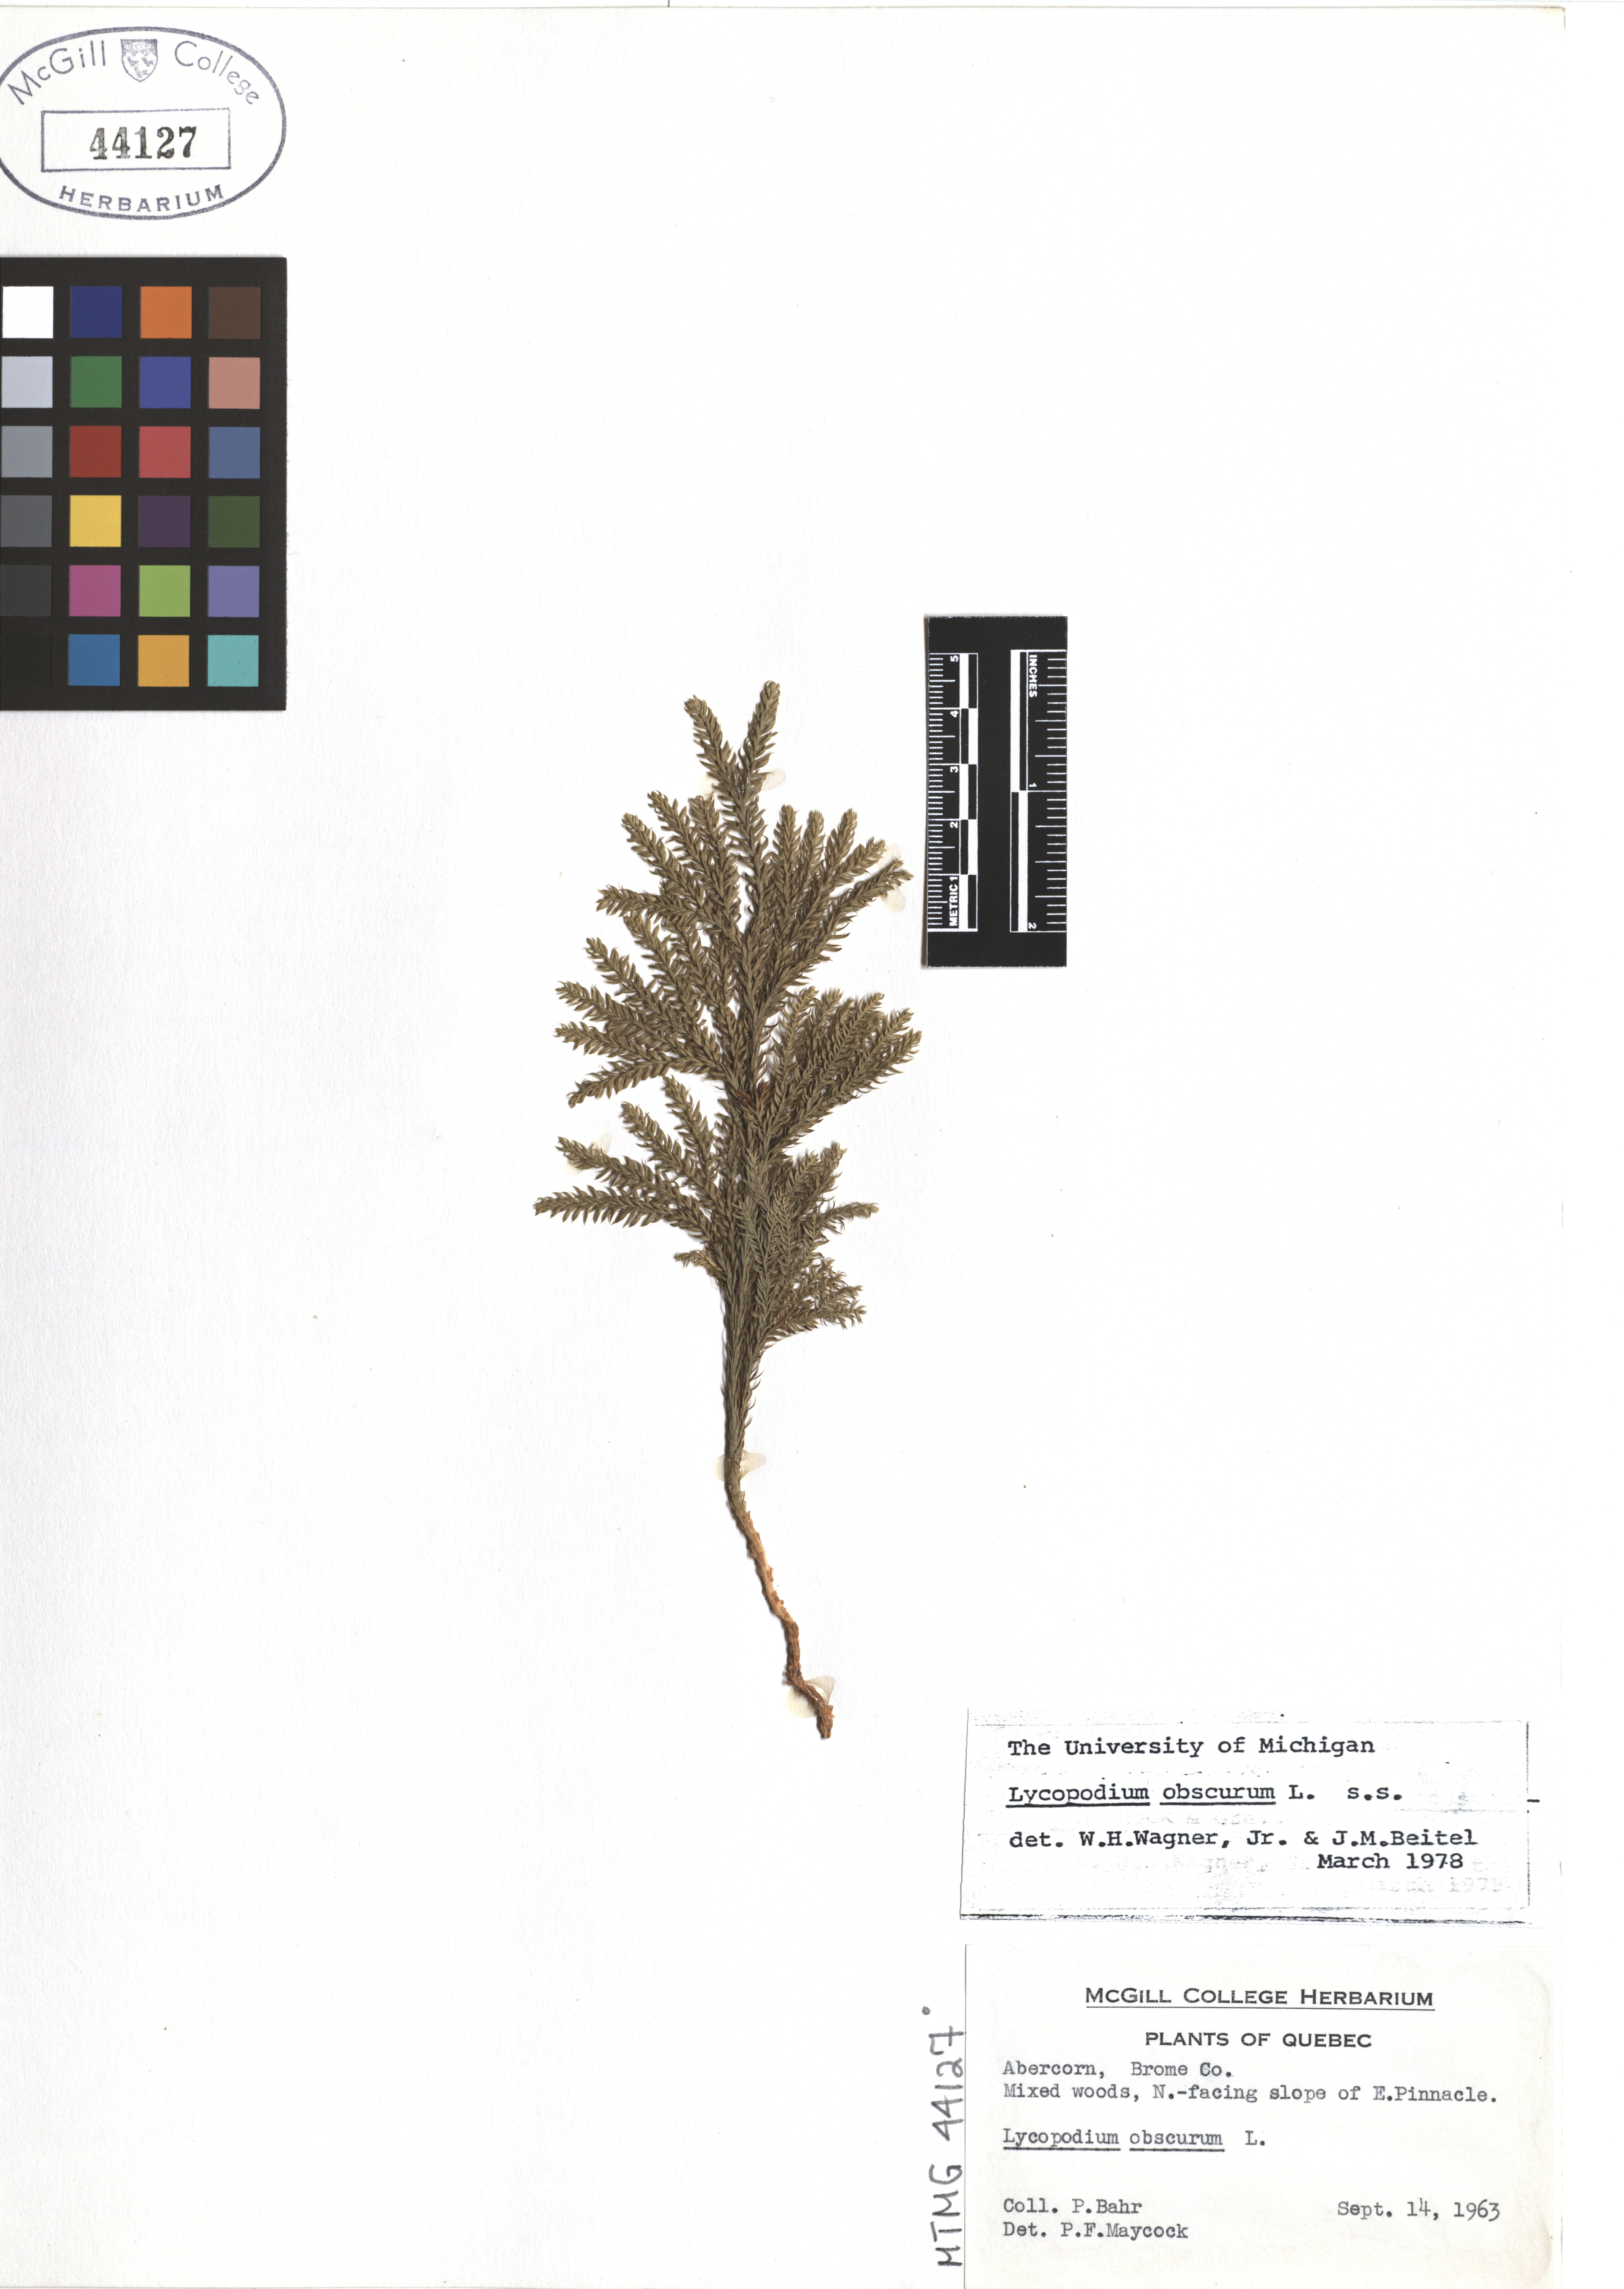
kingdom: Plantae
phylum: Tracheophyta
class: Lycopodiopsida
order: Lycopodiales
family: Lycopodiaceae
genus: Dendrolycopodium
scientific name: Dendrolycopodium obscurum
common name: Common ground-pine
